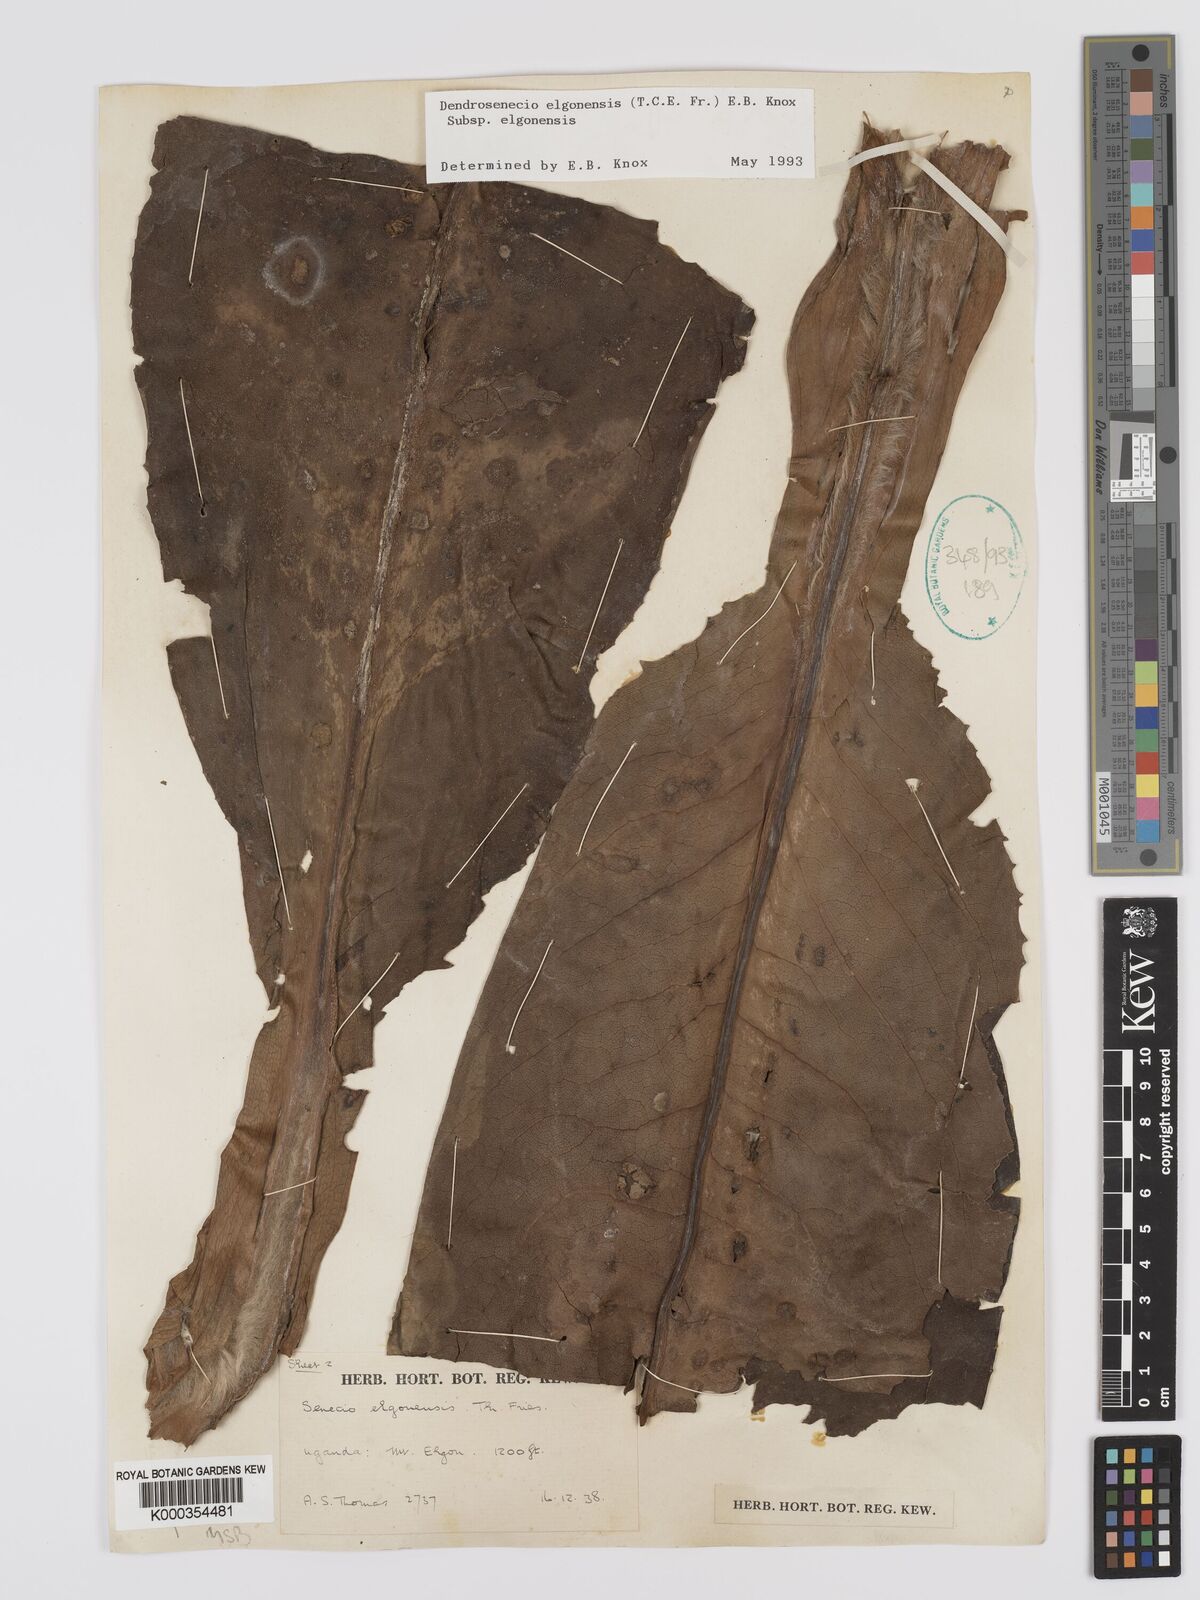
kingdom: Plantae
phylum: Tracheophyta
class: Magnoliopsida
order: Asterales
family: Asteraceae
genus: Dendrosenecio
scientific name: Dendrosenecio elgonensis
